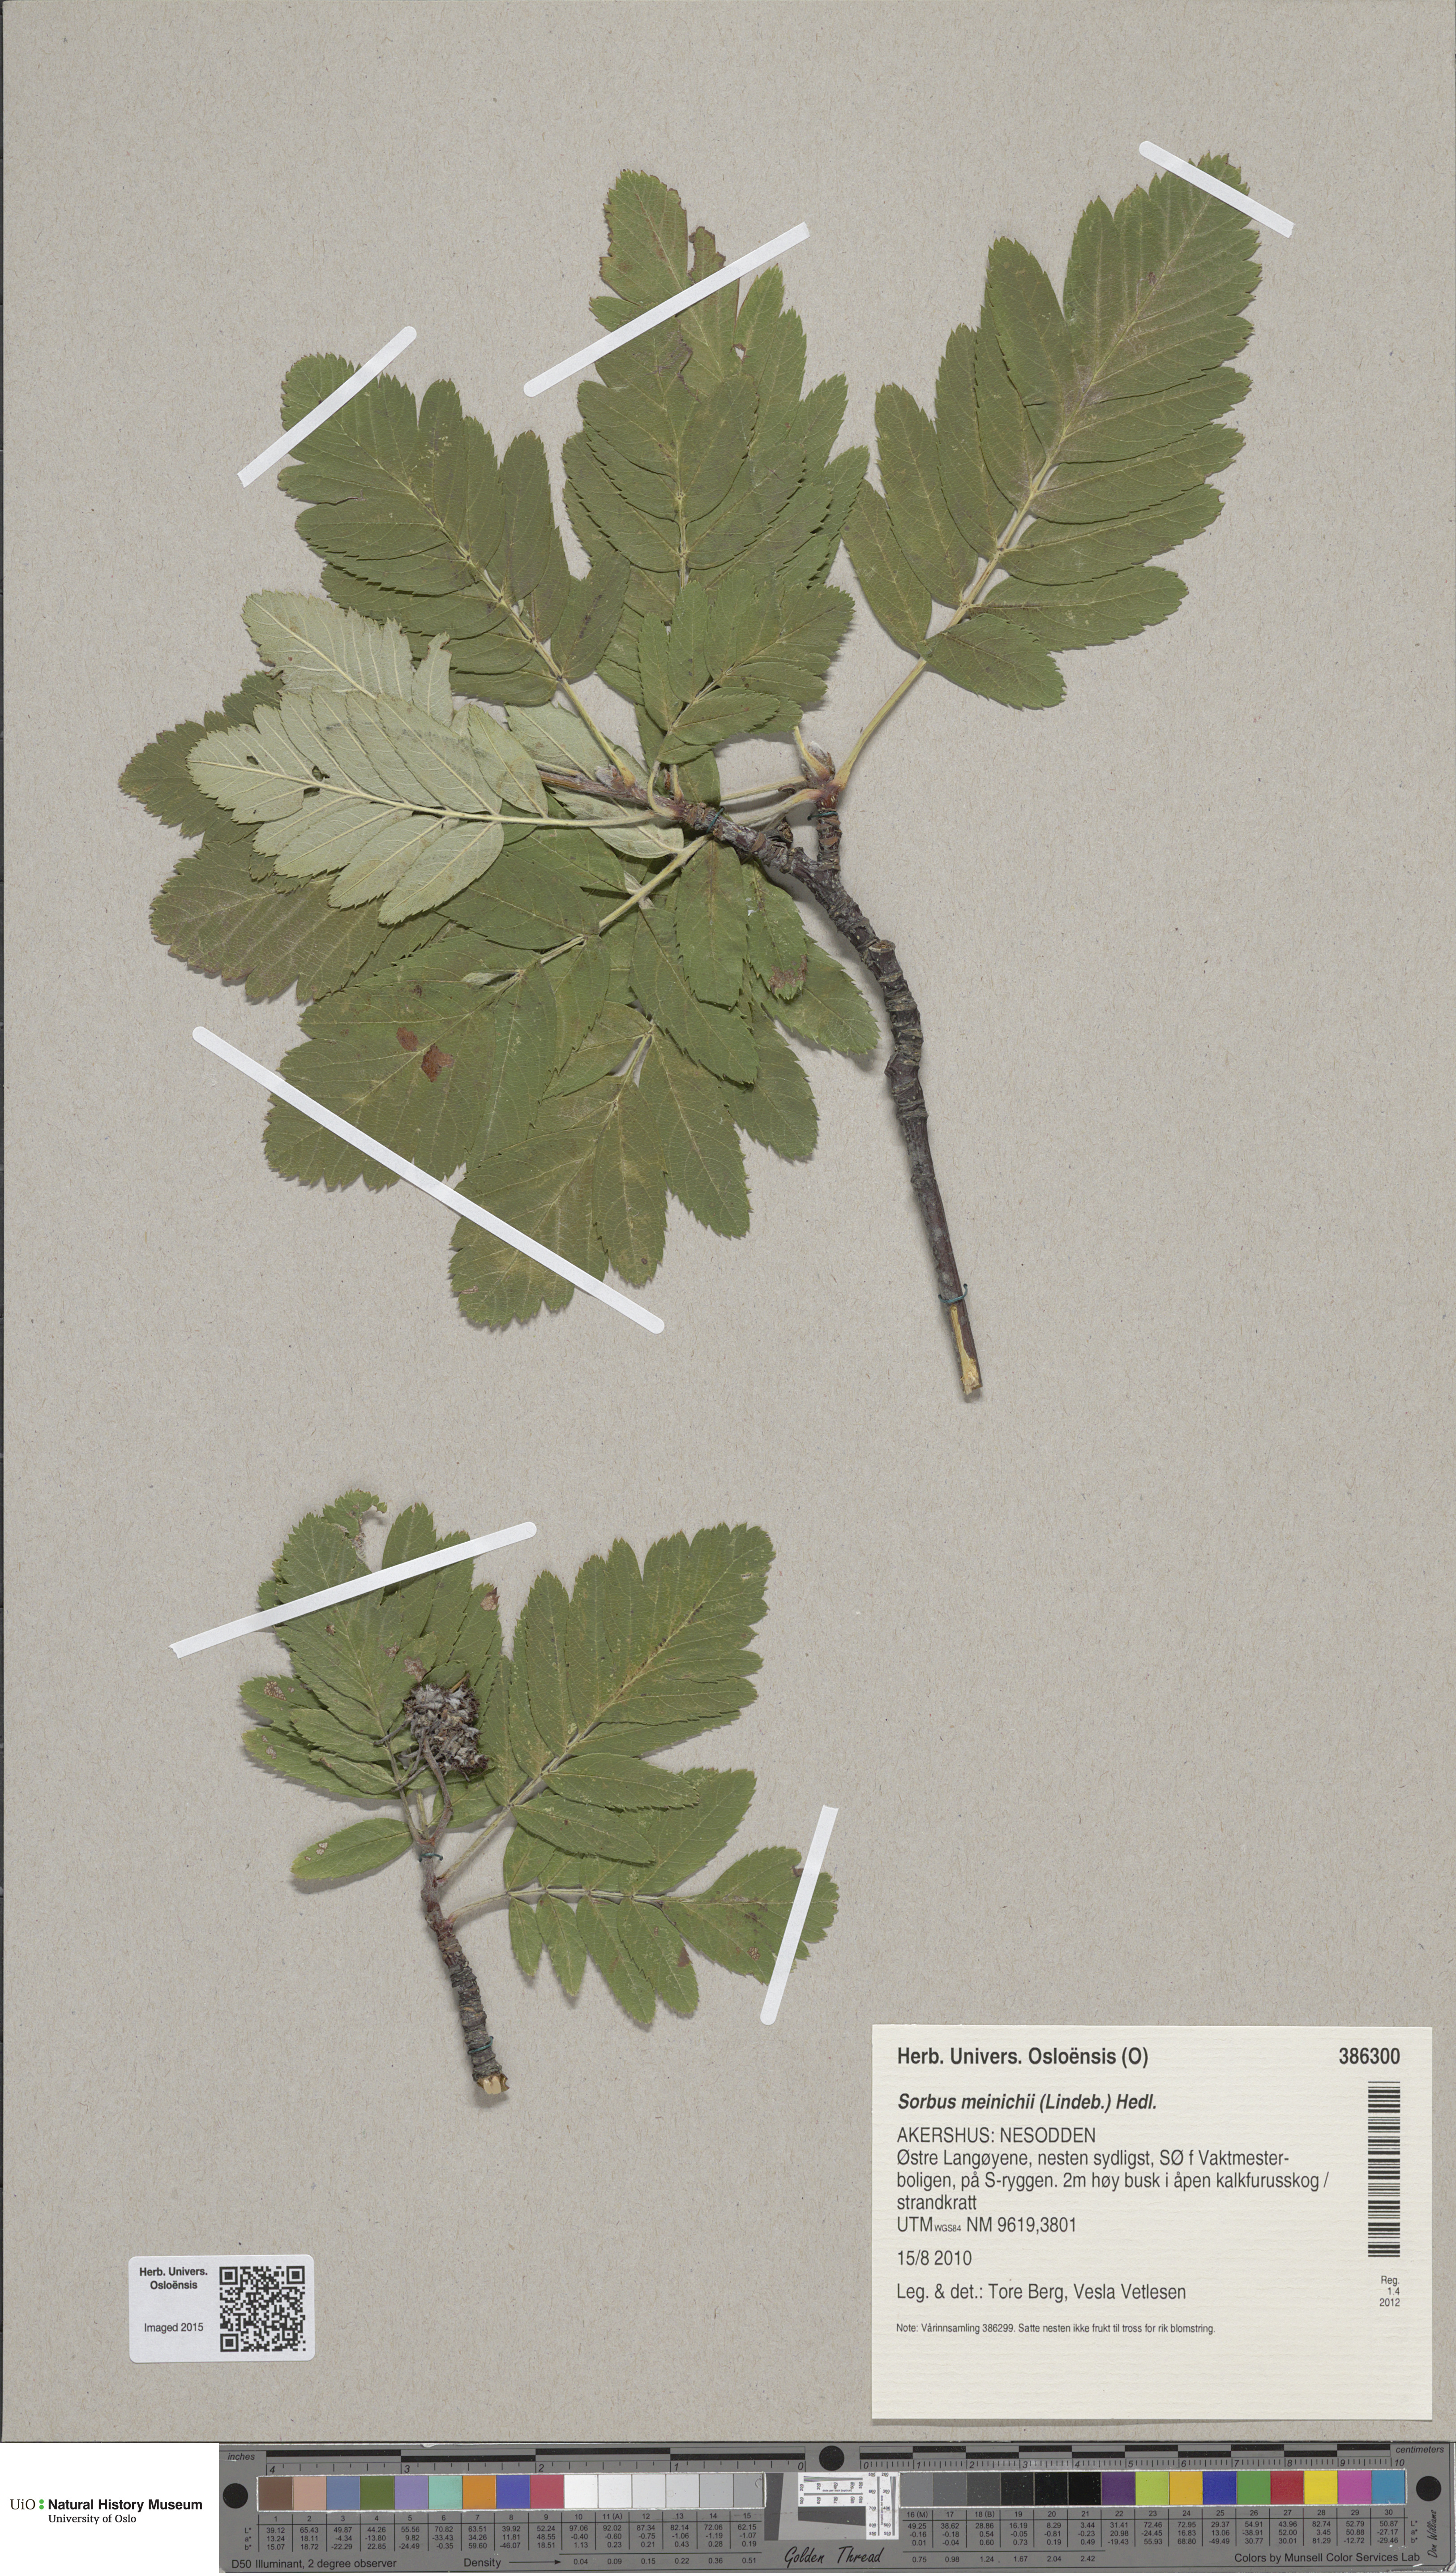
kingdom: Plantae
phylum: Tracheophyta
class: Magnoliopsida
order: Rosales
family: Rosaceae
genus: Hedlundia
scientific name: Hedlundia meinichii
